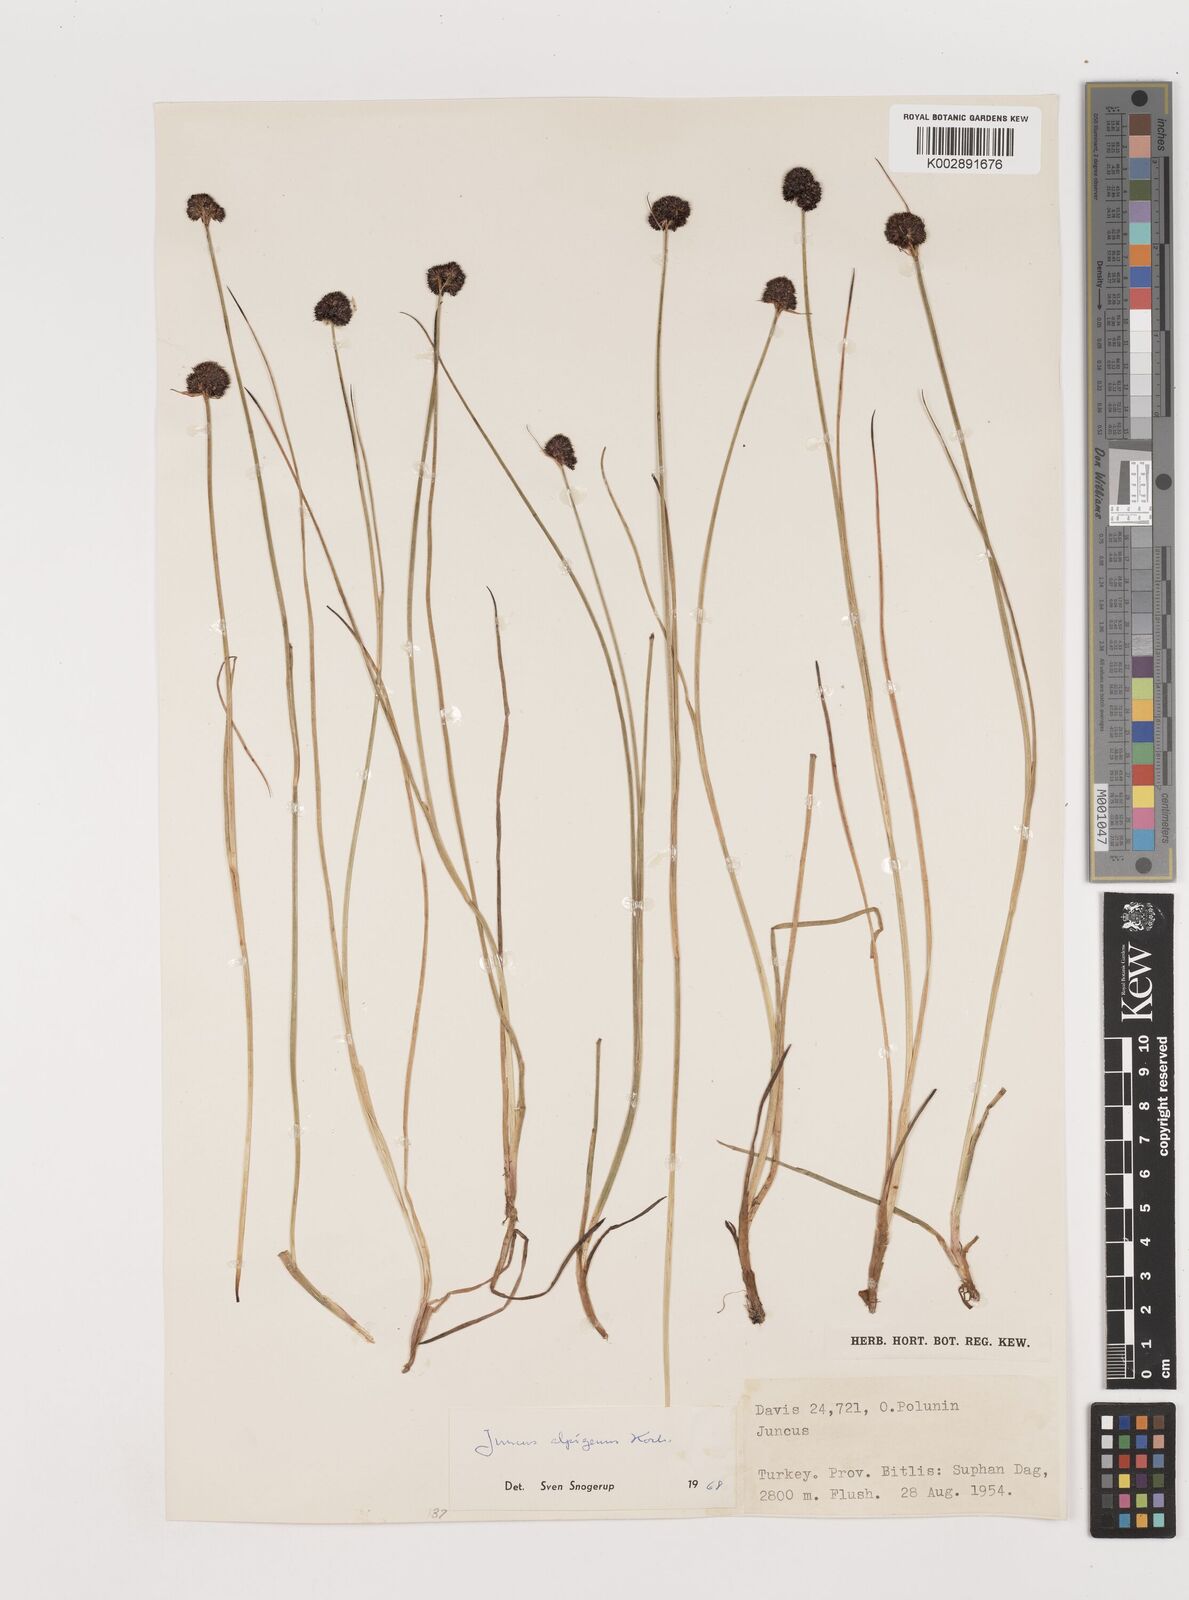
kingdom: Plantae
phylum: Tracheophyta
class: Liliopsida
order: Poales
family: Juncaceae
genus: Juncus
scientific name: Juncus alpigenus
